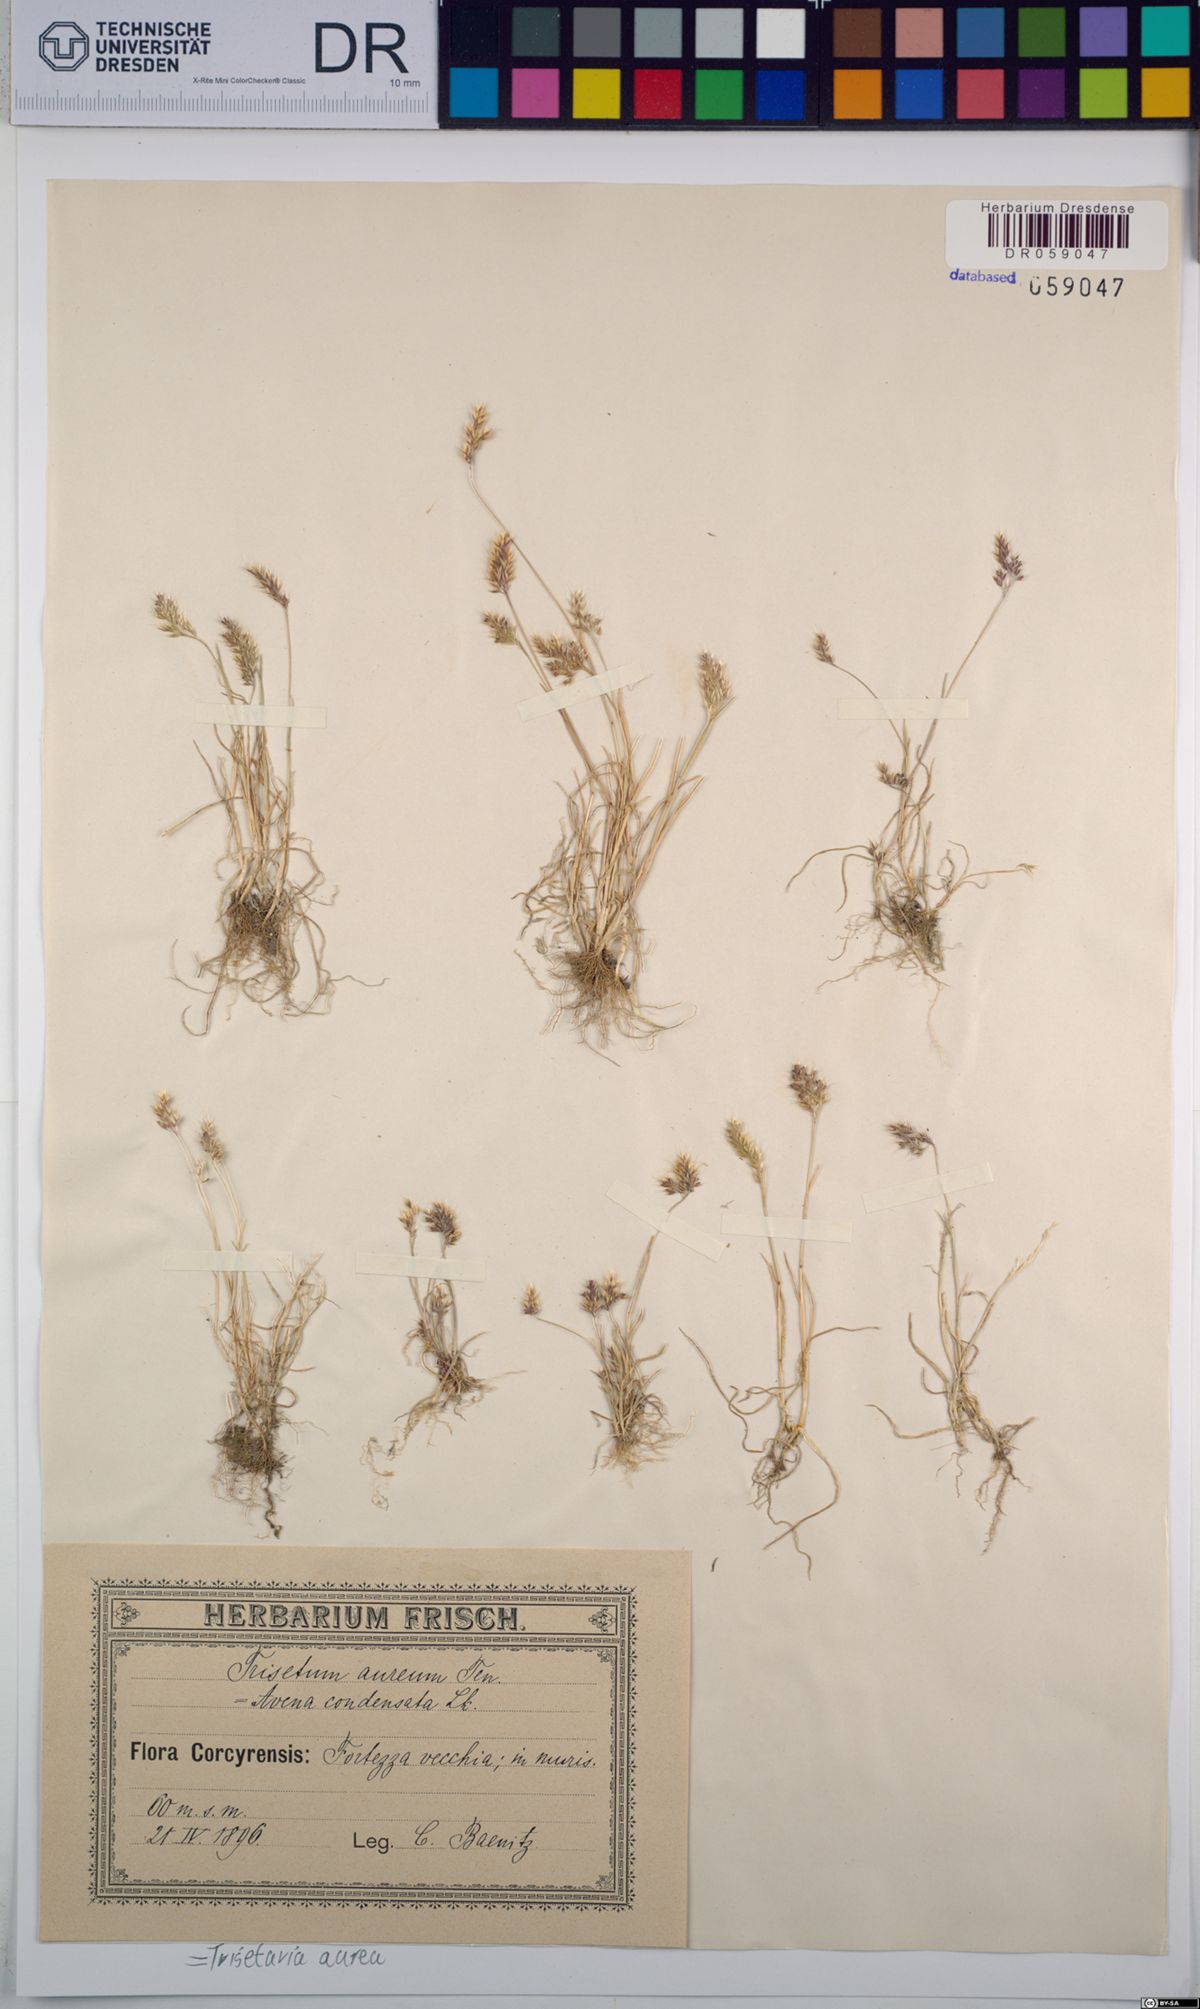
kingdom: Plantae
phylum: Tracheophyta
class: Liliopsida
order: Poales
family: Poaceae
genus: Trisetaria
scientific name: Trisetaria aurea
